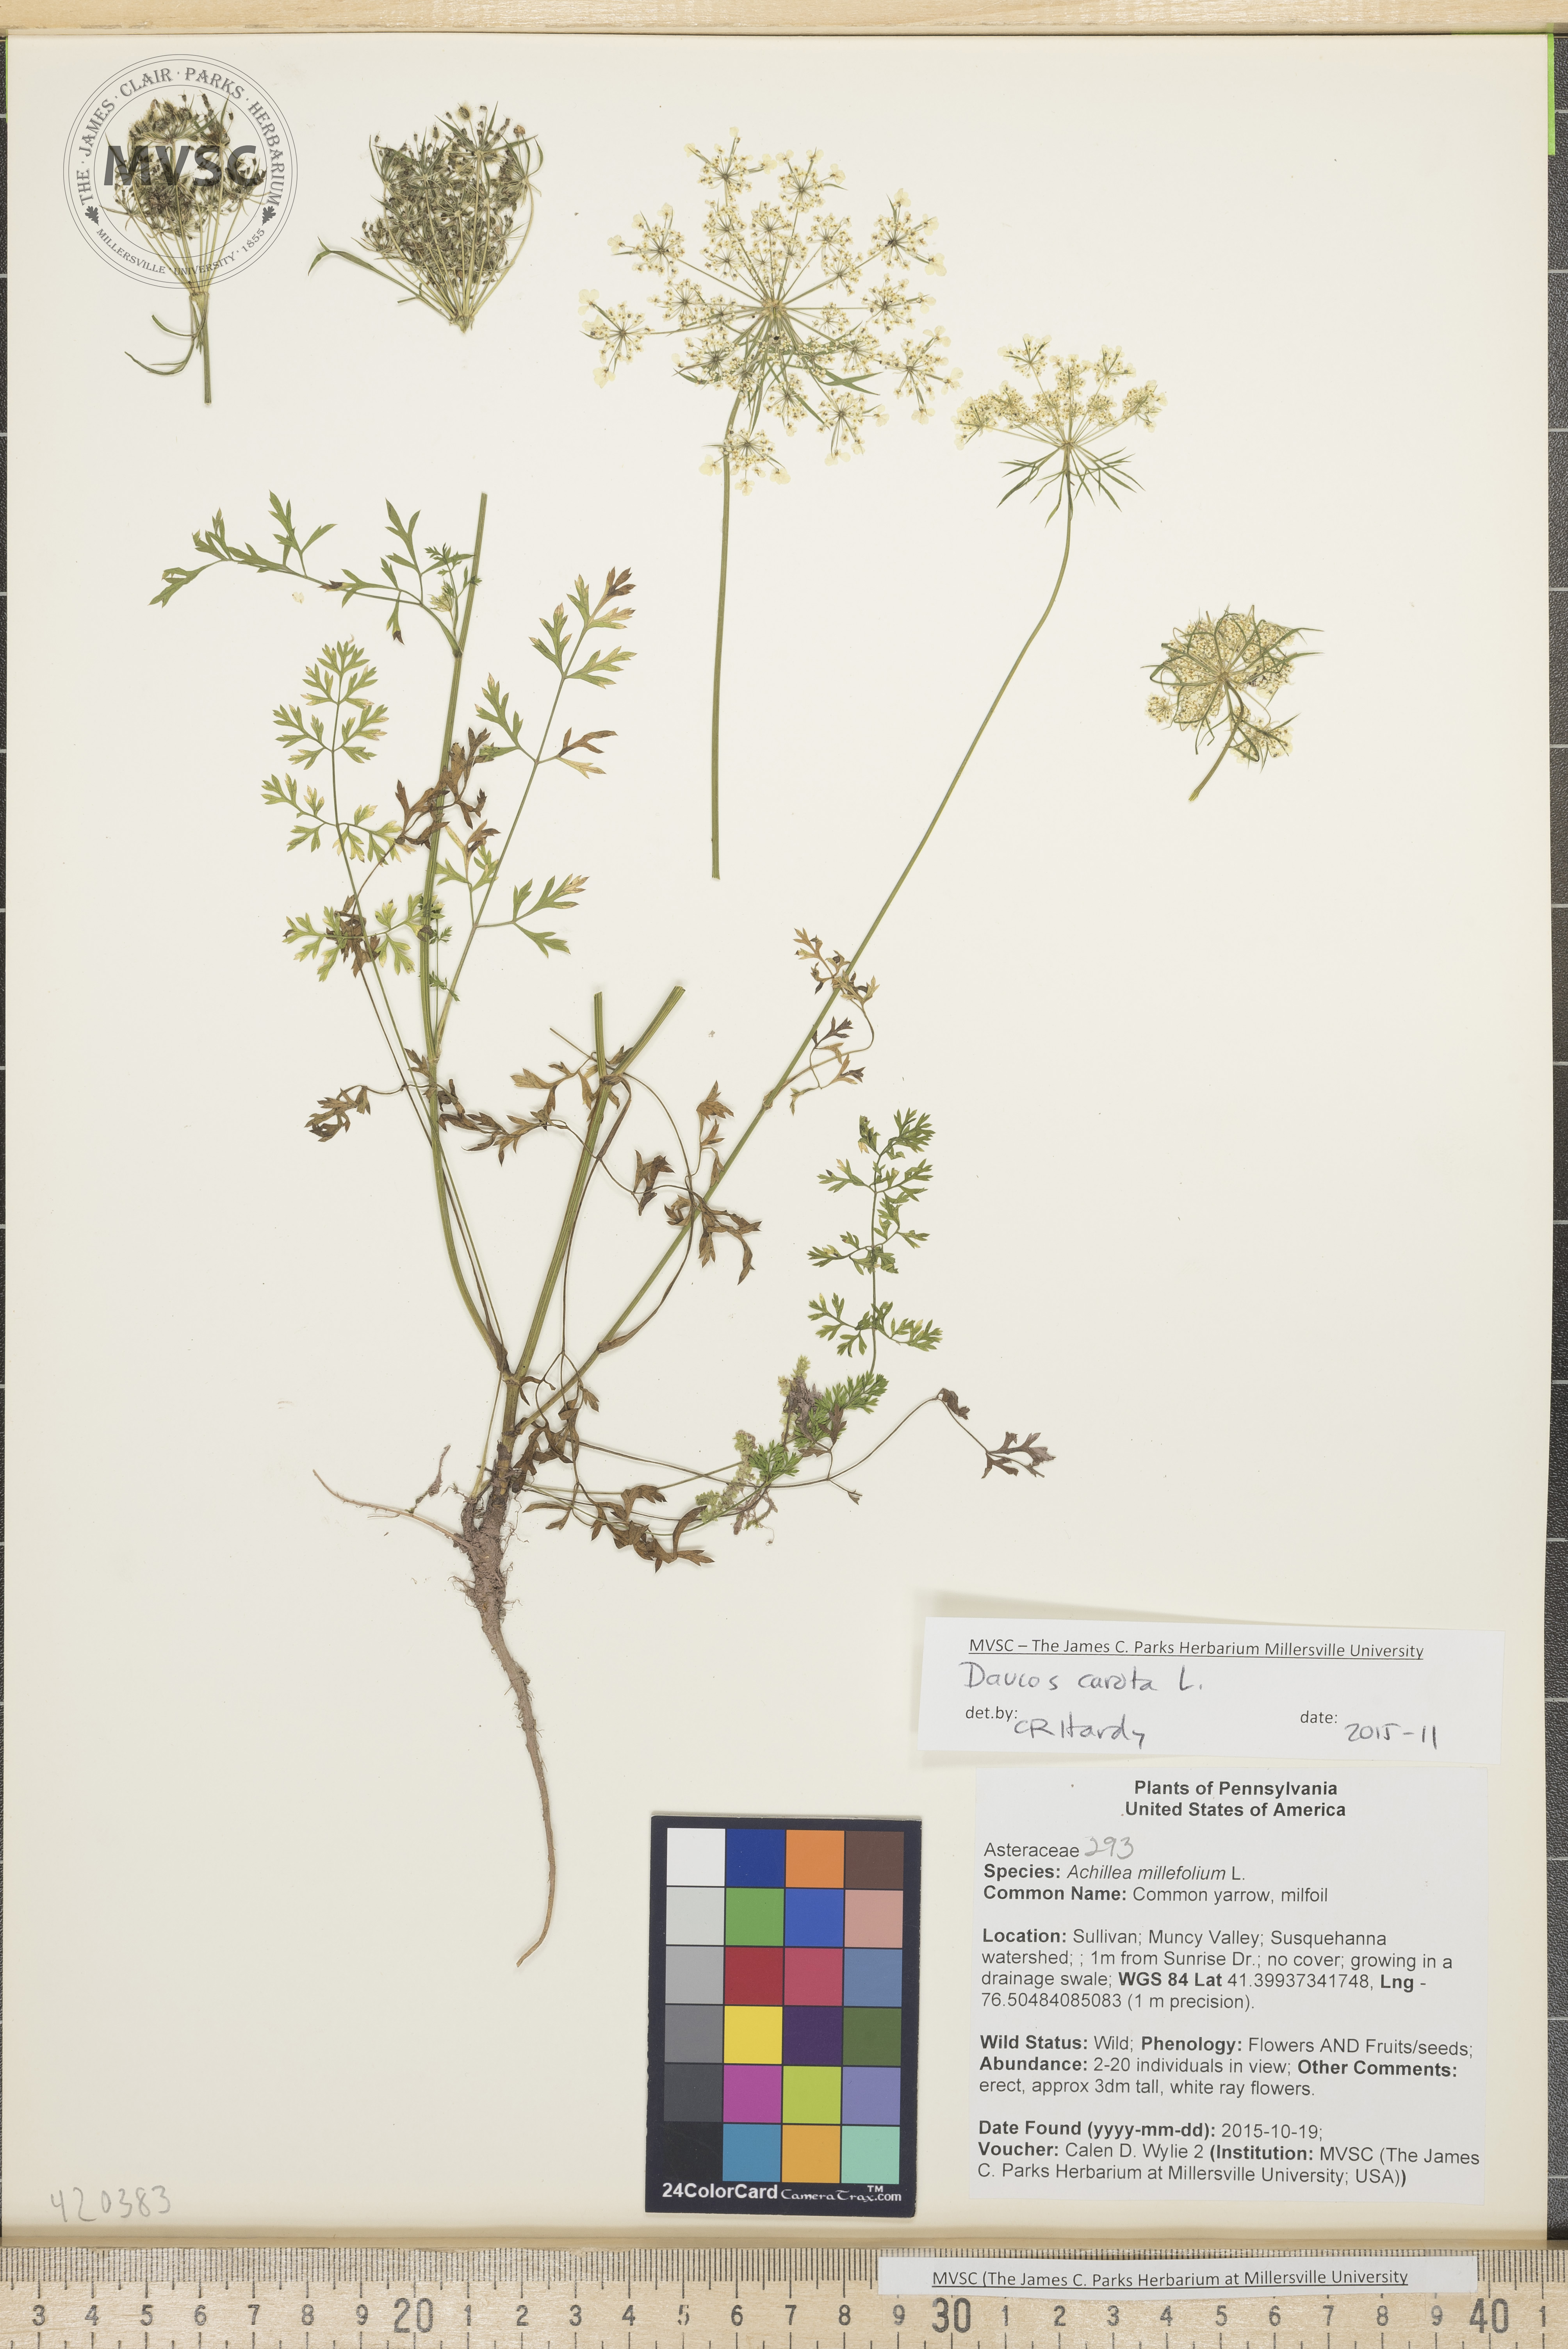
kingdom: Plantae
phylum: Tracheophyta
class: Magnoliopsida
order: Apiales
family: Apiaceae
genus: Daucus
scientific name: Daucus carota
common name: Queen Anne's Lace
